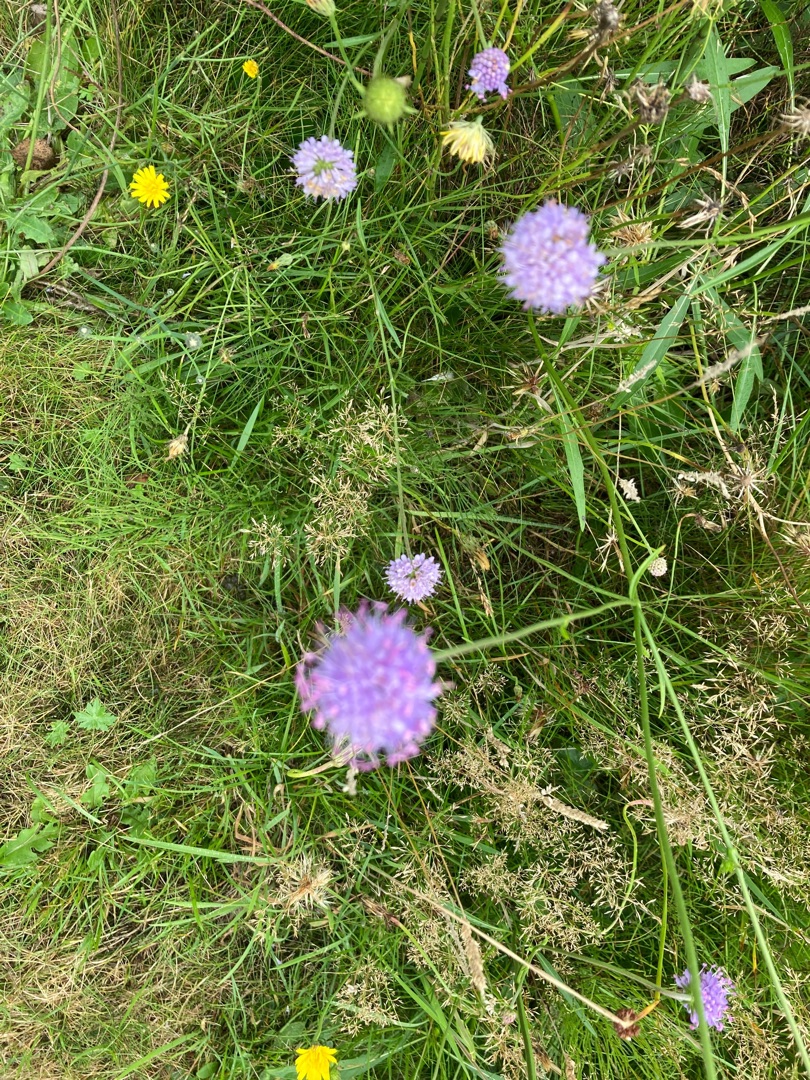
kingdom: Plantae
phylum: Tracheophyta
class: Magnoliopsida
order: Dipsacales
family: Caprifoliaceae
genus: Succisa
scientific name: Succisa pratensis
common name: Djævelsbid
